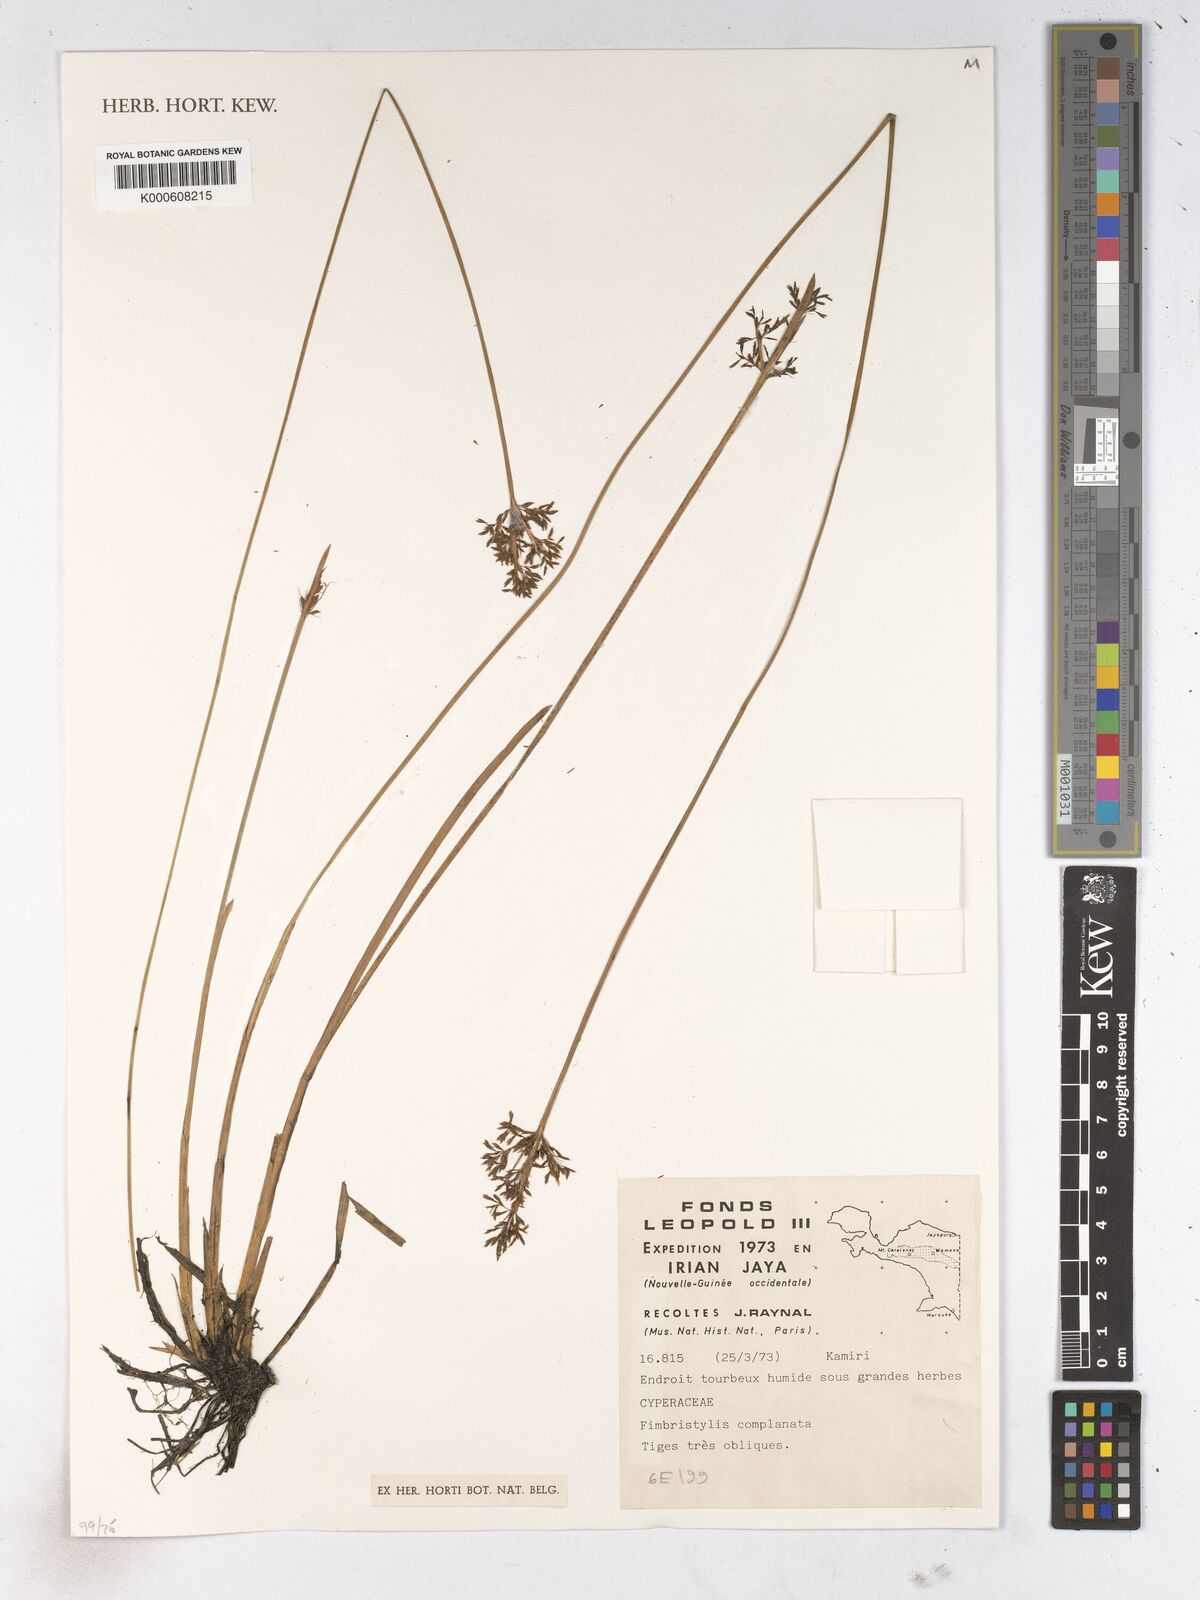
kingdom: Plantae
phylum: Tracheophyta
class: Liliopsida
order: Poales
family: Cyperaceae
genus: Fimbristylis
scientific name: Fimbristylis complanata
